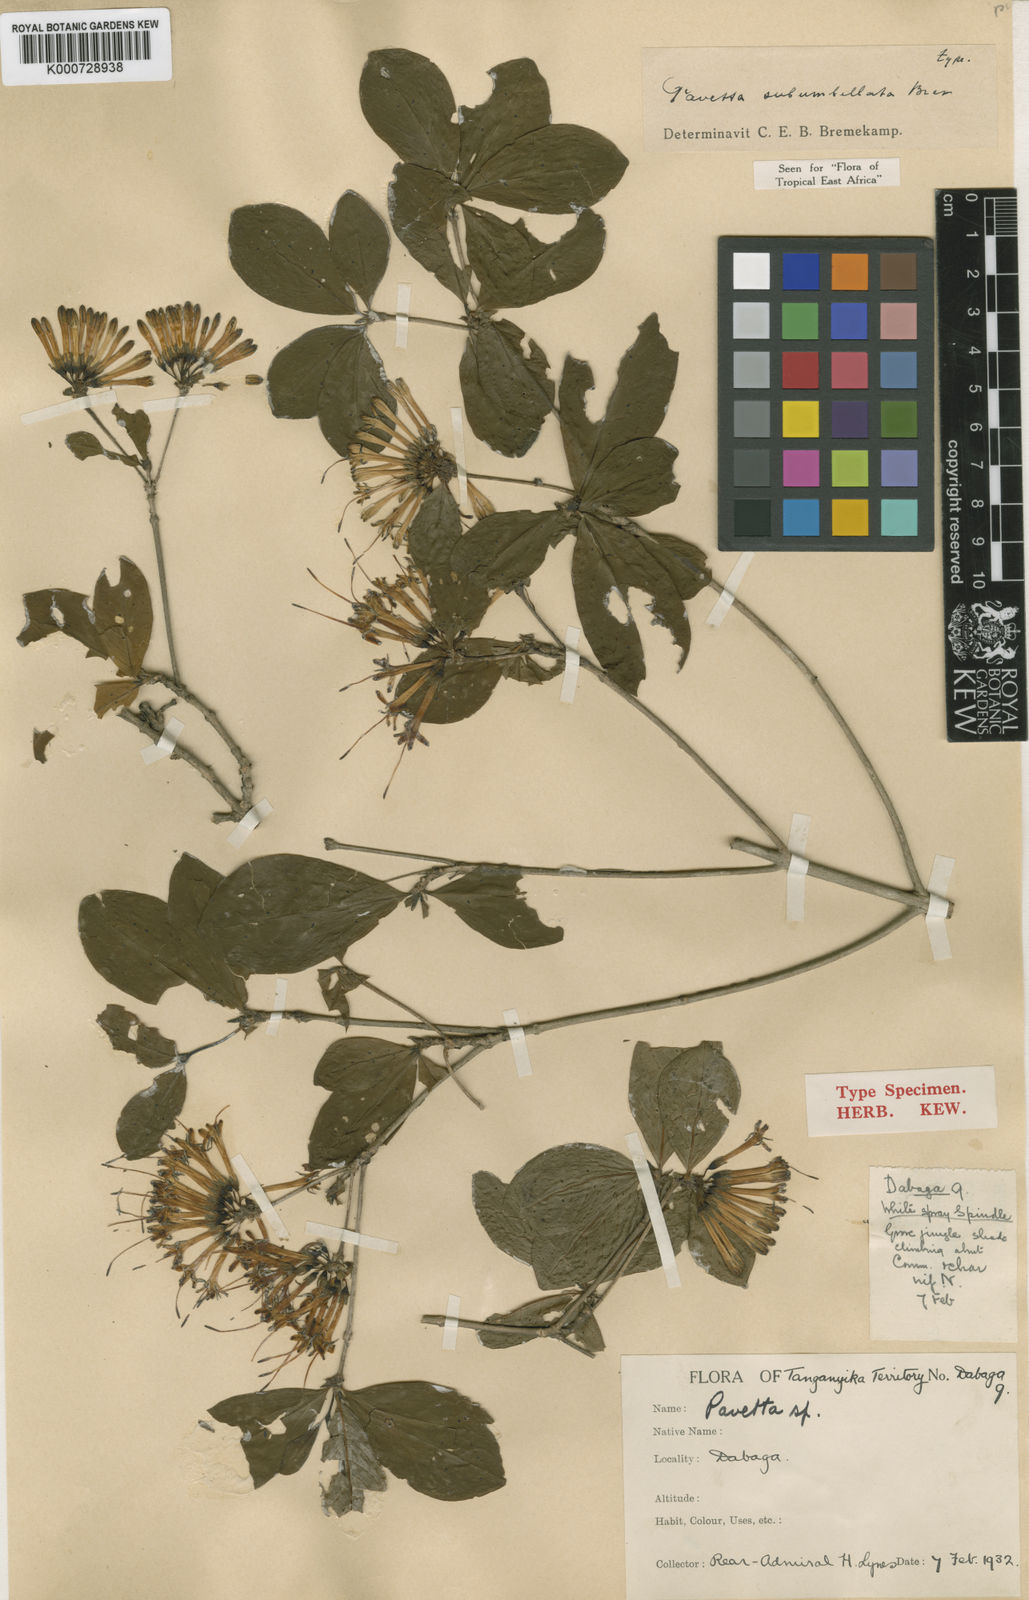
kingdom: Plantae
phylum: Tracheophyta
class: Magnoliopsida
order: Gentianales
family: Rubiaceae
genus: Pavetta
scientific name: Pavetta subumbellata
